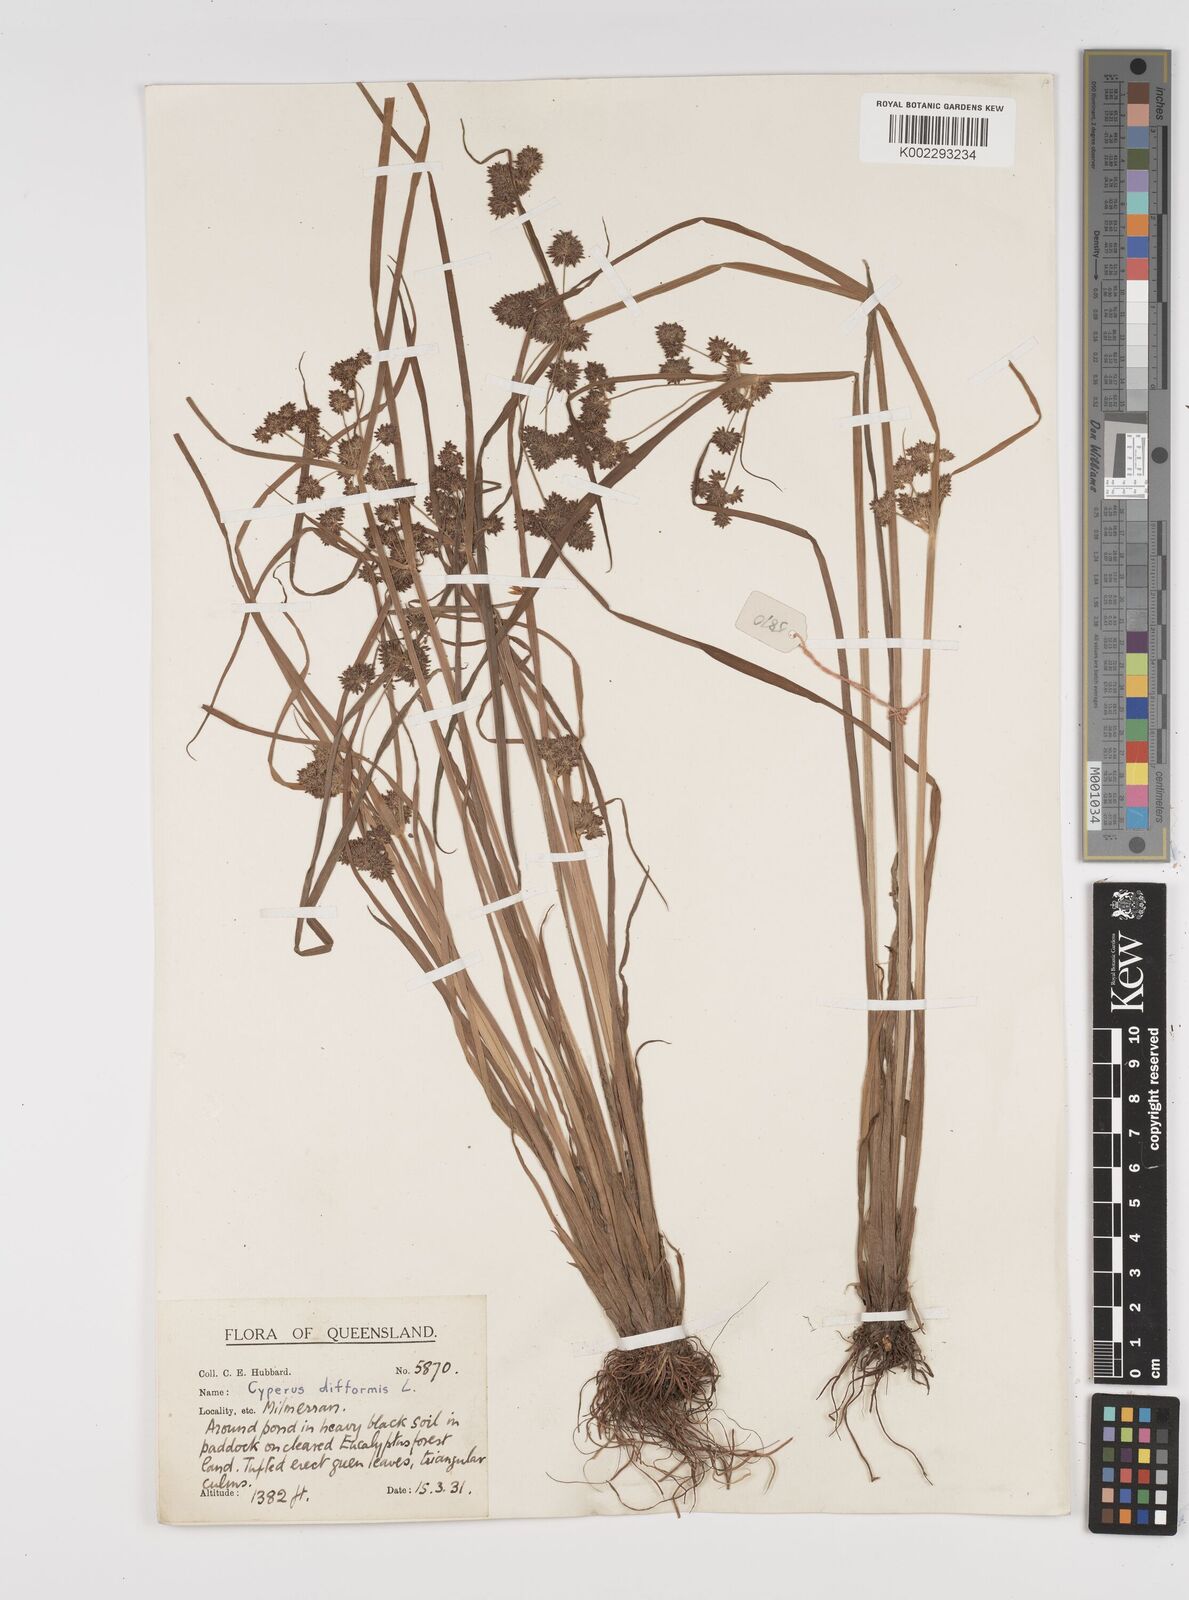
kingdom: Plantae
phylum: Tracheophyta
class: Liliopsida
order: Poales
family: Cyperaceae
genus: Cyperus
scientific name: Cyperus difformis
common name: Variable flatsedge
